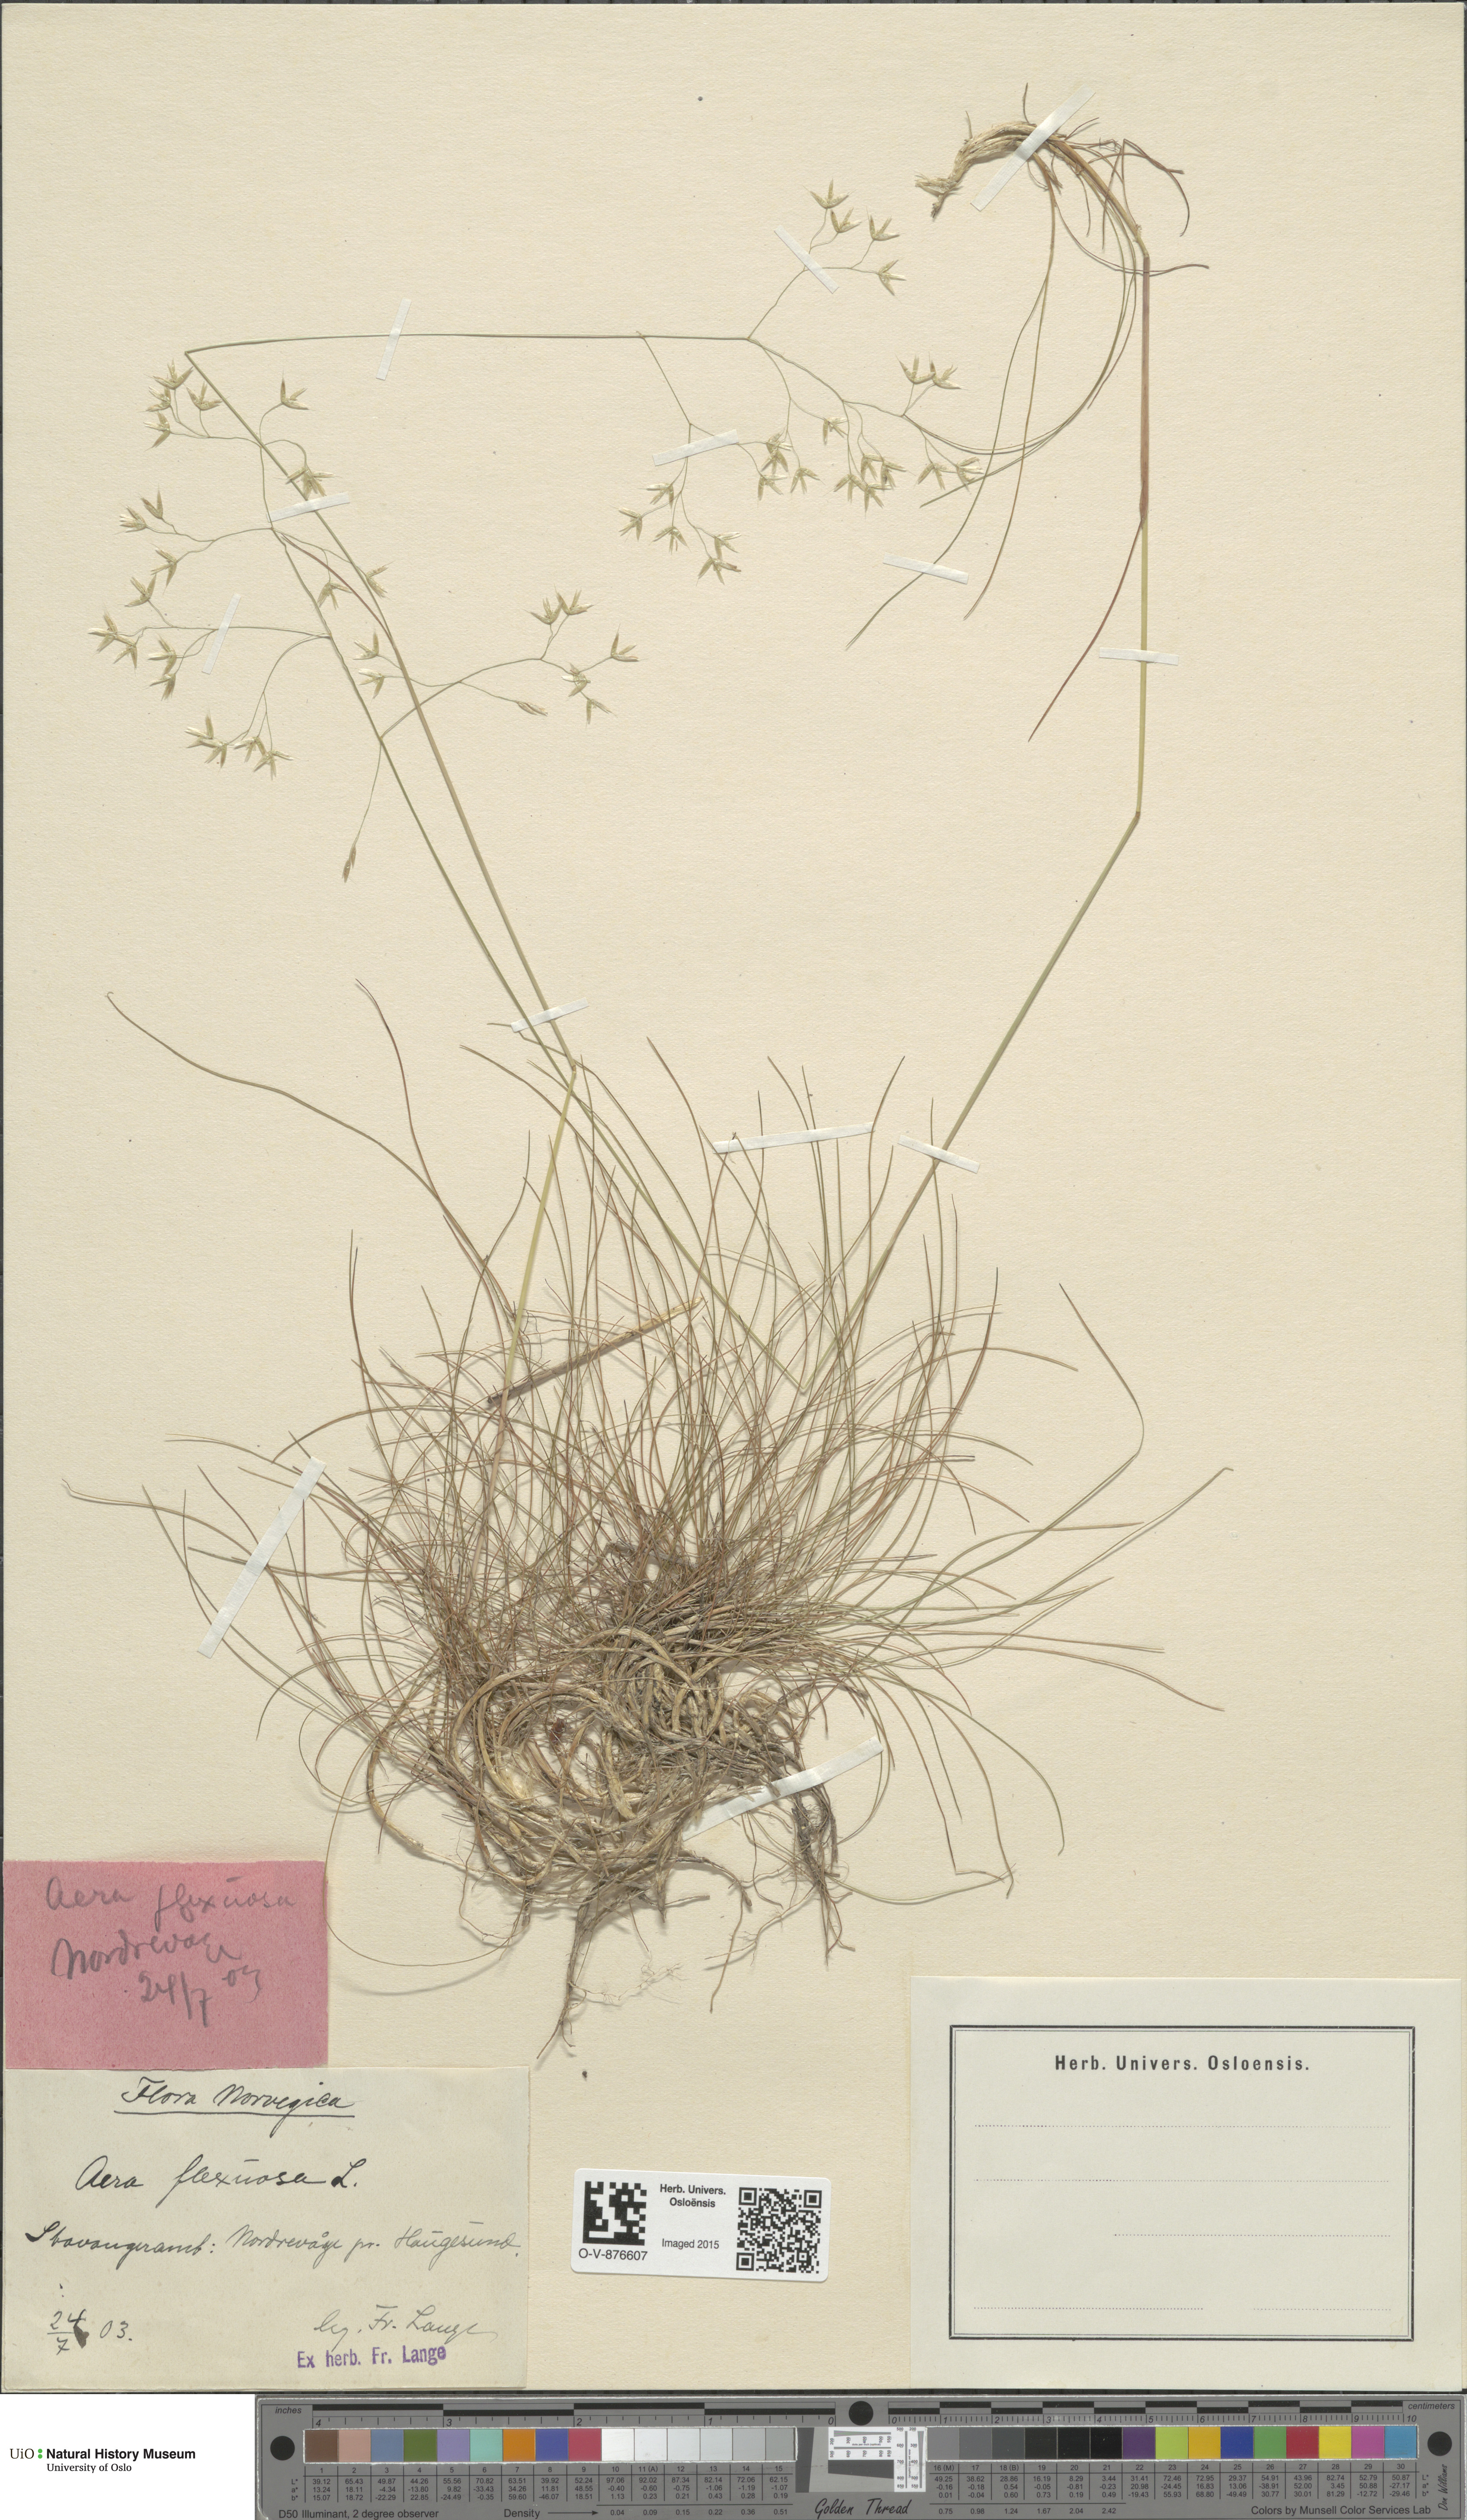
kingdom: Plantae
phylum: Tracheophyta
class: Liliopsida
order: Poales
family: Poaceae
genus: Avenella
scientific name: Avenella flexuosa
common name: Wavy hairgrass
